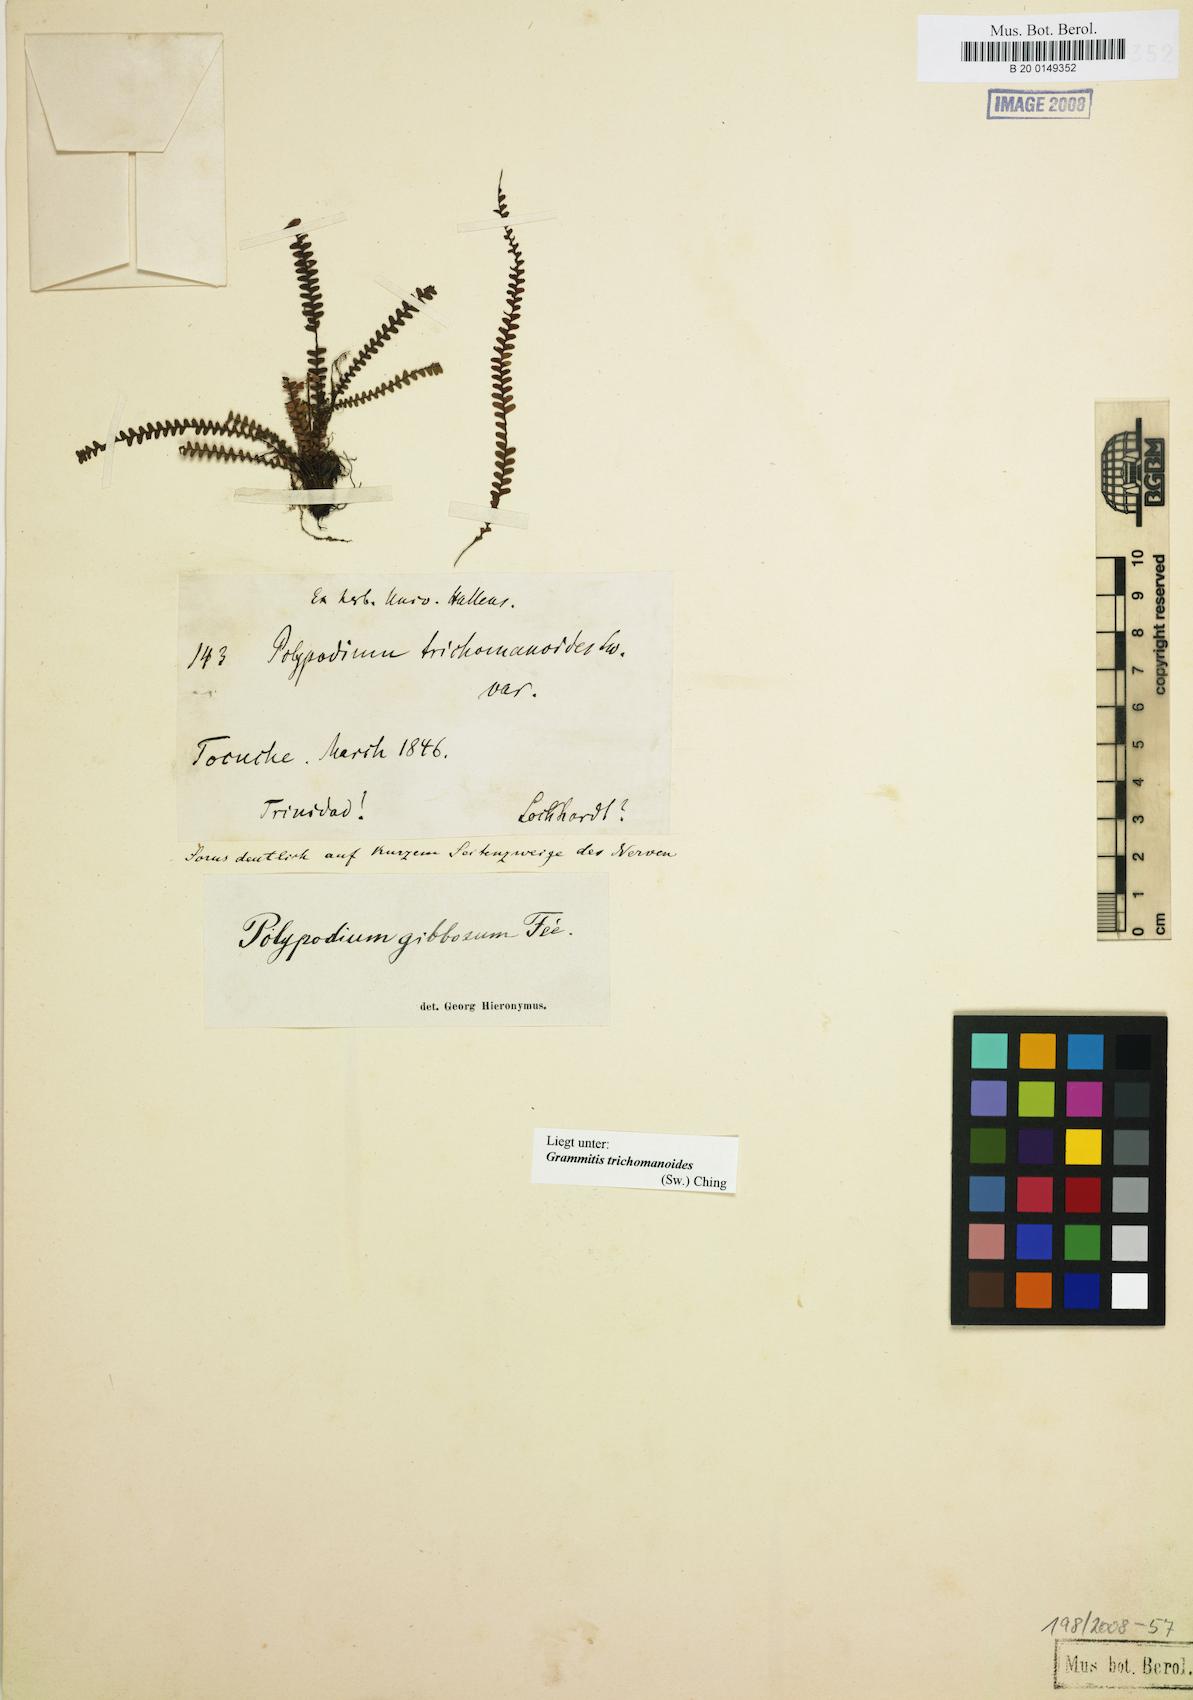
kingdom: Plantae
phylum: Tracheophyta
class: Polypodiopsida
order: Polypodiales
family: Polypodiaceae
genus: Moranopteris
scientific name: Moranopteris taenifolia
